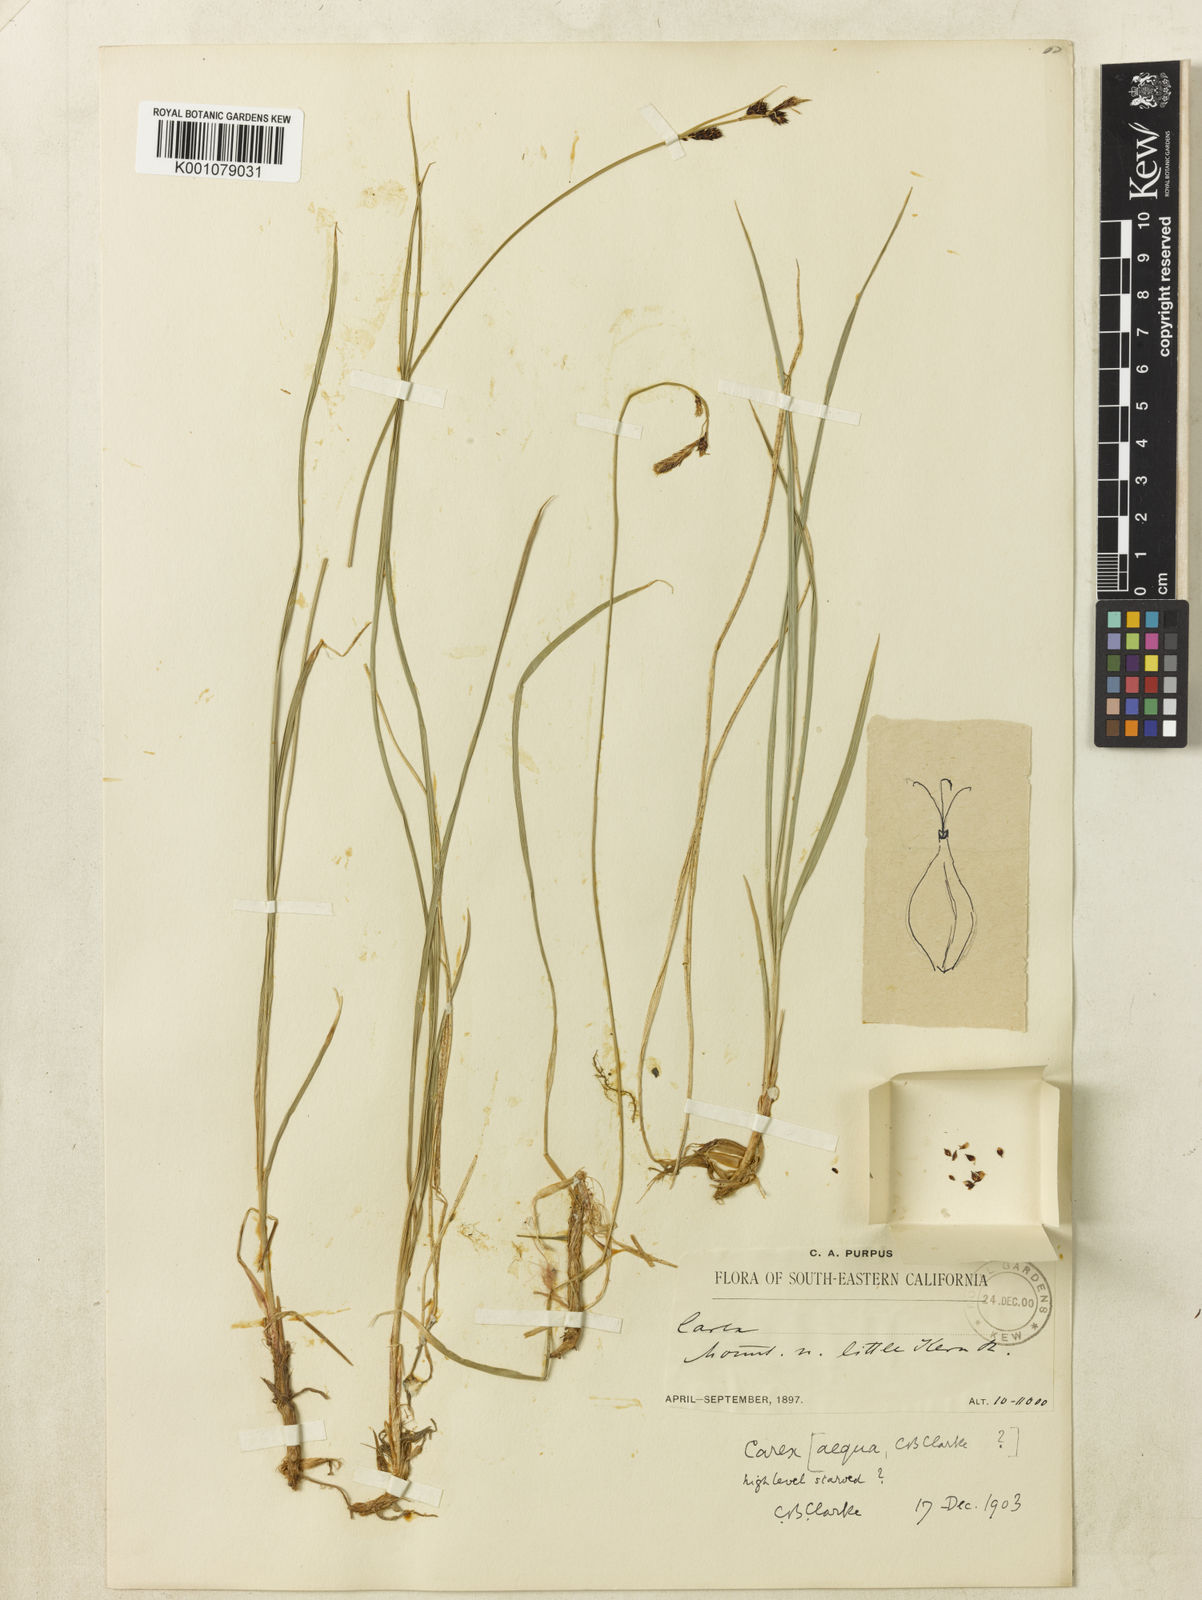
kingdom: Plantae
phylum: Tracheophyta
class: Liliopsida
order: Poales
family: Cyperaceae
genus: Carex
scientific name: Carex serratodens
